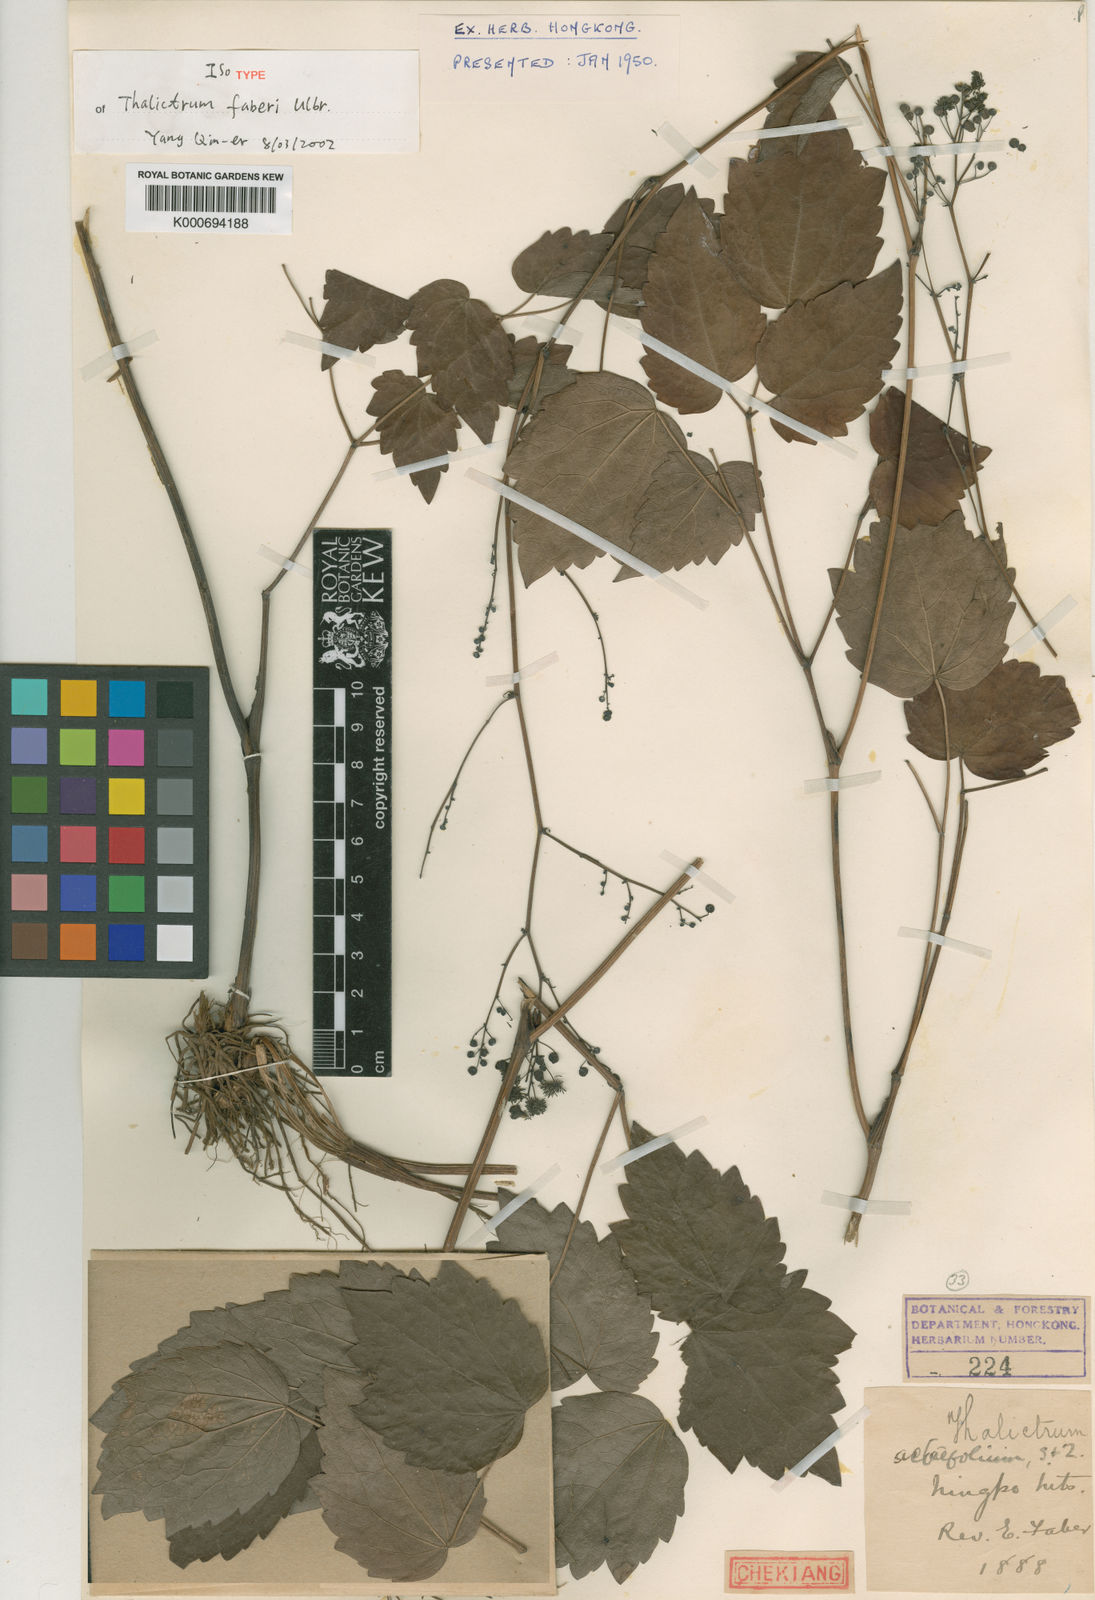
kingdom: Plantae
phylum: Tracheophyta
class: Magnoliopsida
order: Ranunculales
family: Ranunculaceae
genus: Thalictrum
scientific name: Thalictrum faberi
